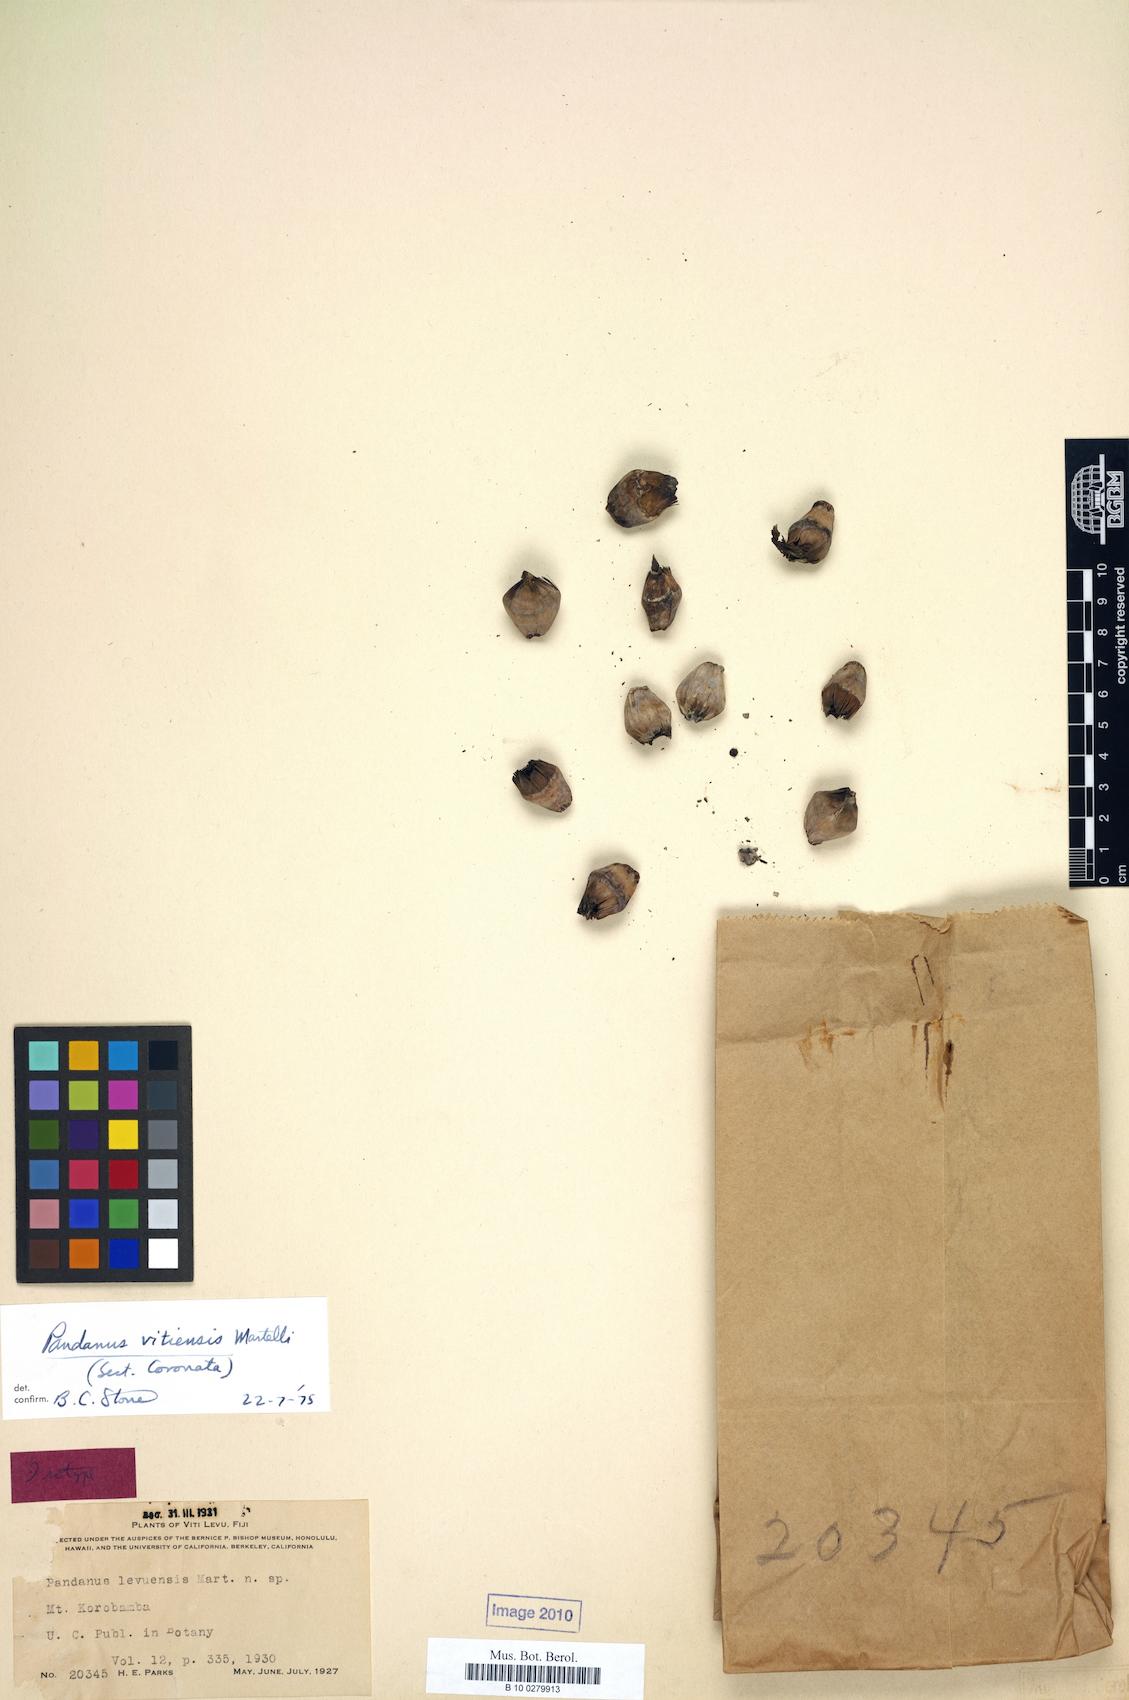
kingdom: Plantae
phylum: Tracheophyta
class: Liliopsida
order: Pandanales
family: Pandanaceae
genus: Pandanus
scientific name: Pandanus vitiensis
